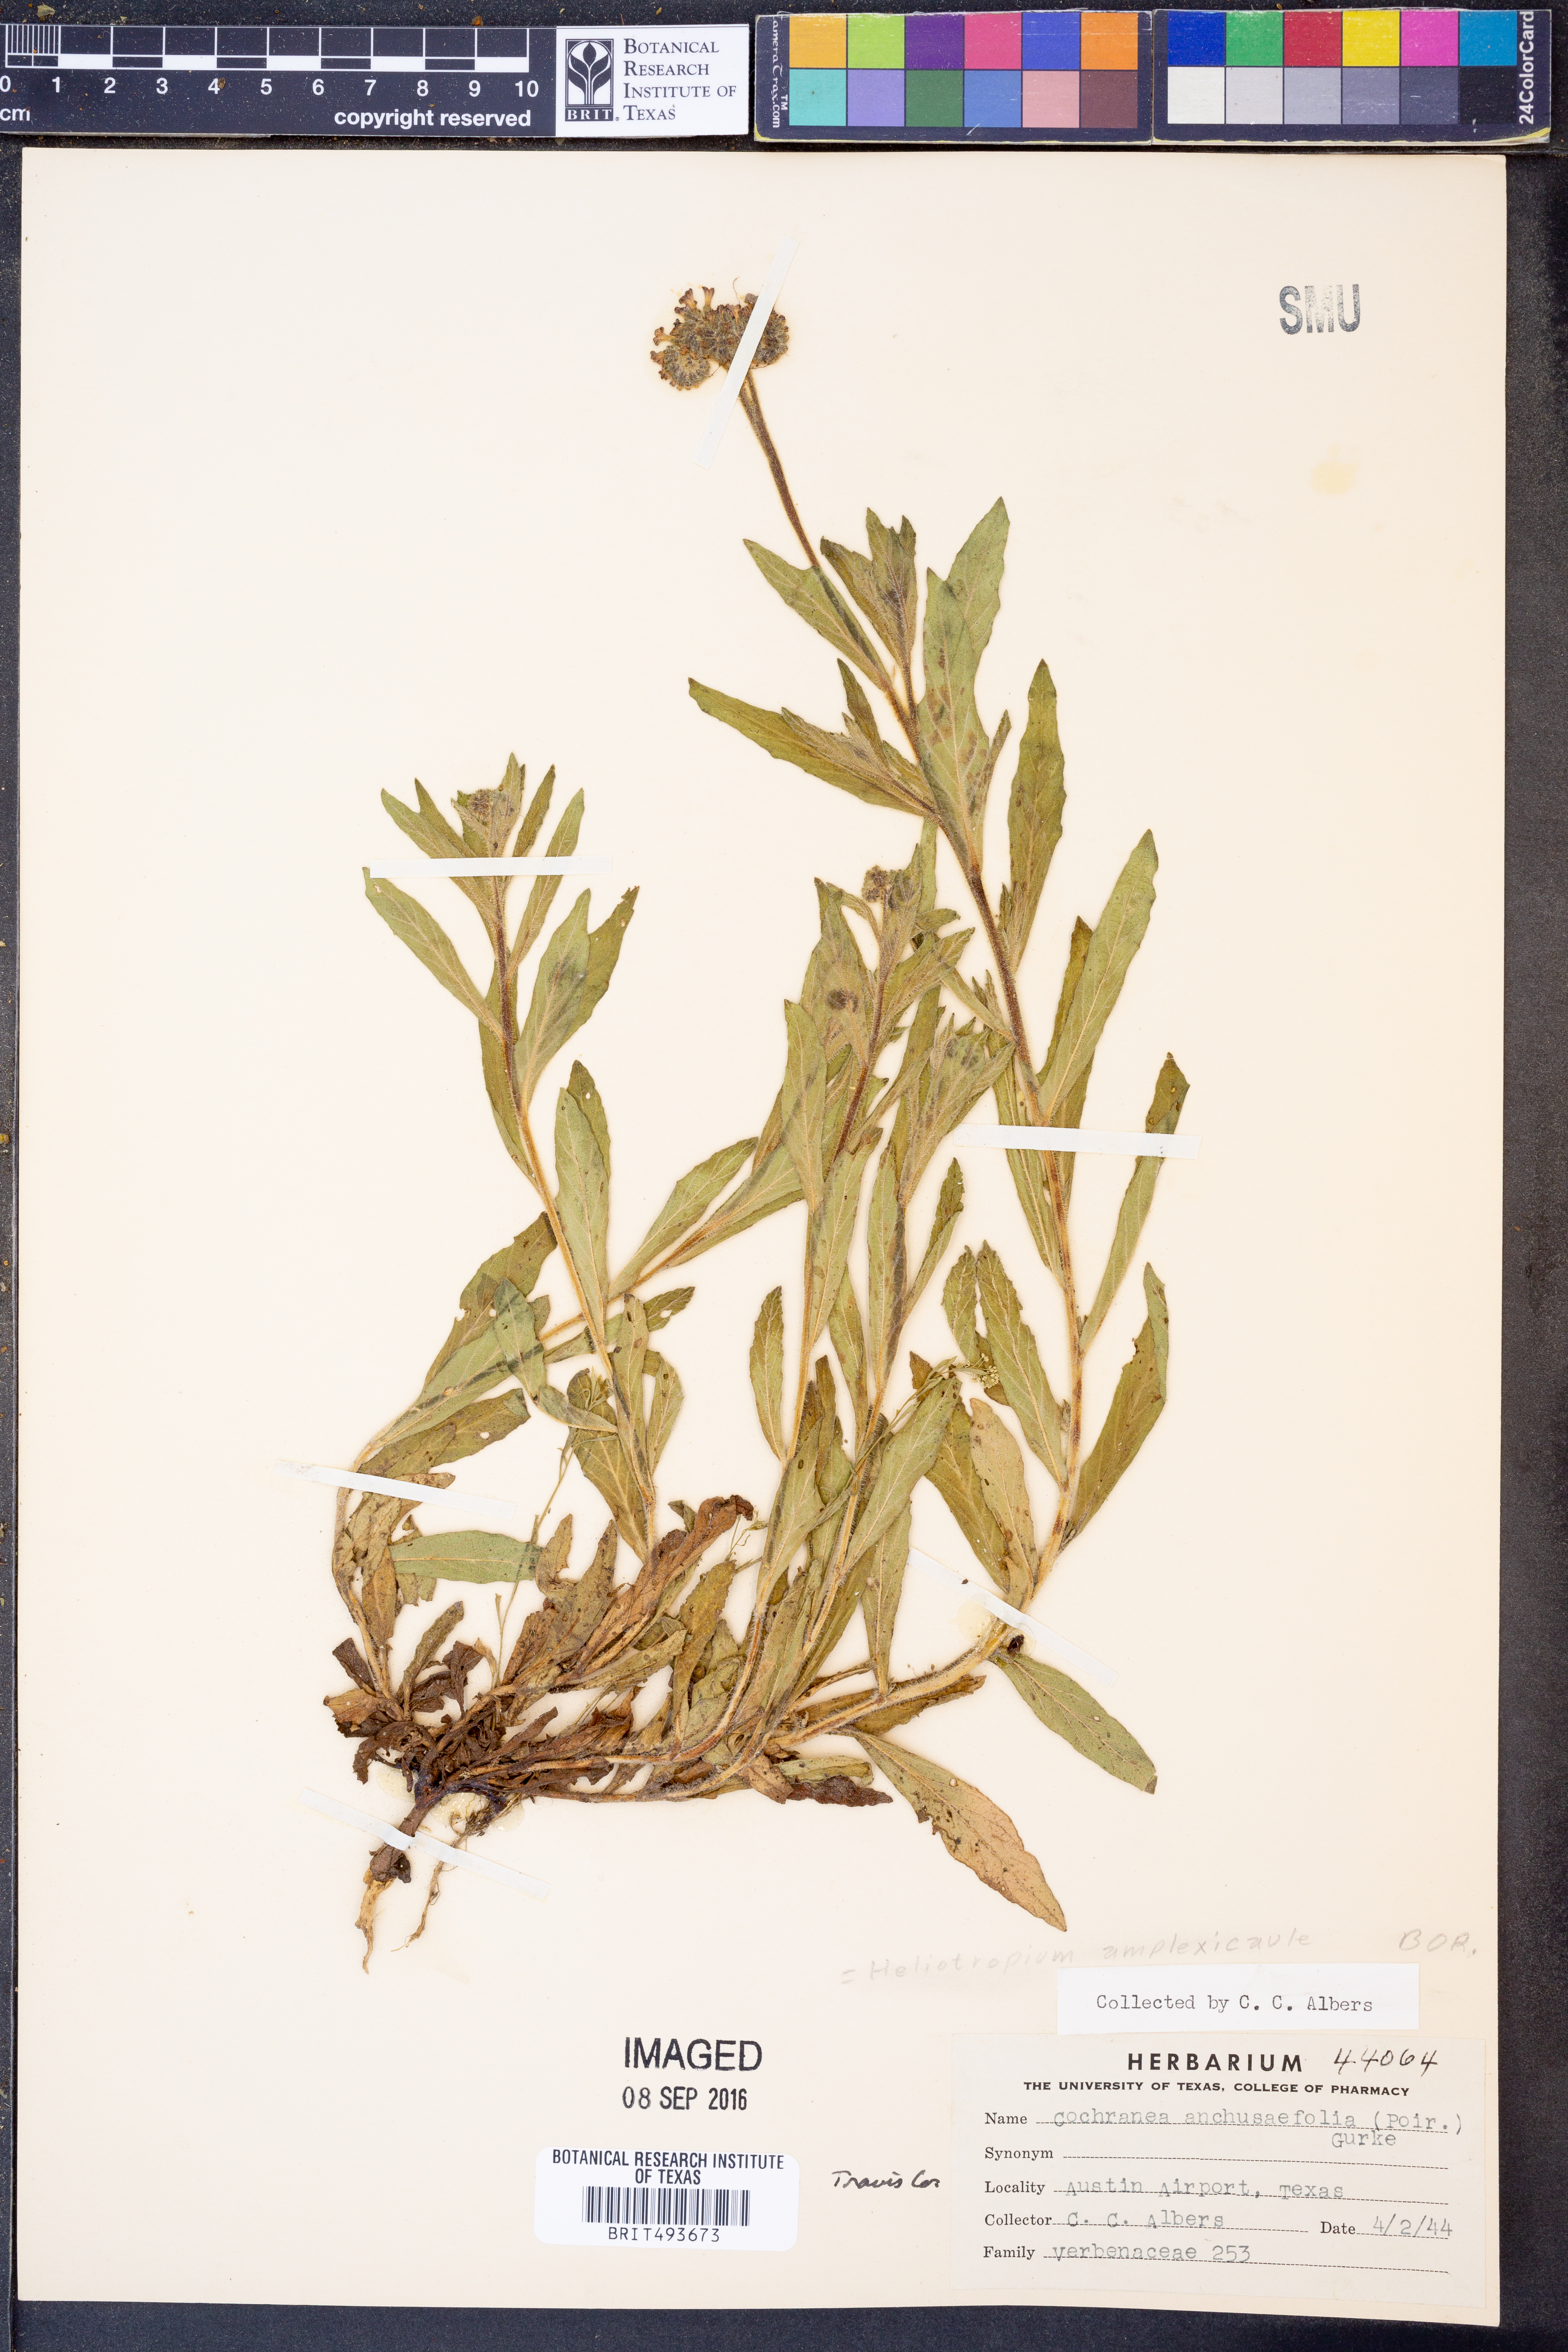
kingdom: Plantae
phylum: Tracheophyta
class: Magnoliopsida
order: Boraginales
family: Heliotropiaceae
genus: Heliotropium
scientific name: Heliotropium amplexicaule
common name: Clasping heliotrope
